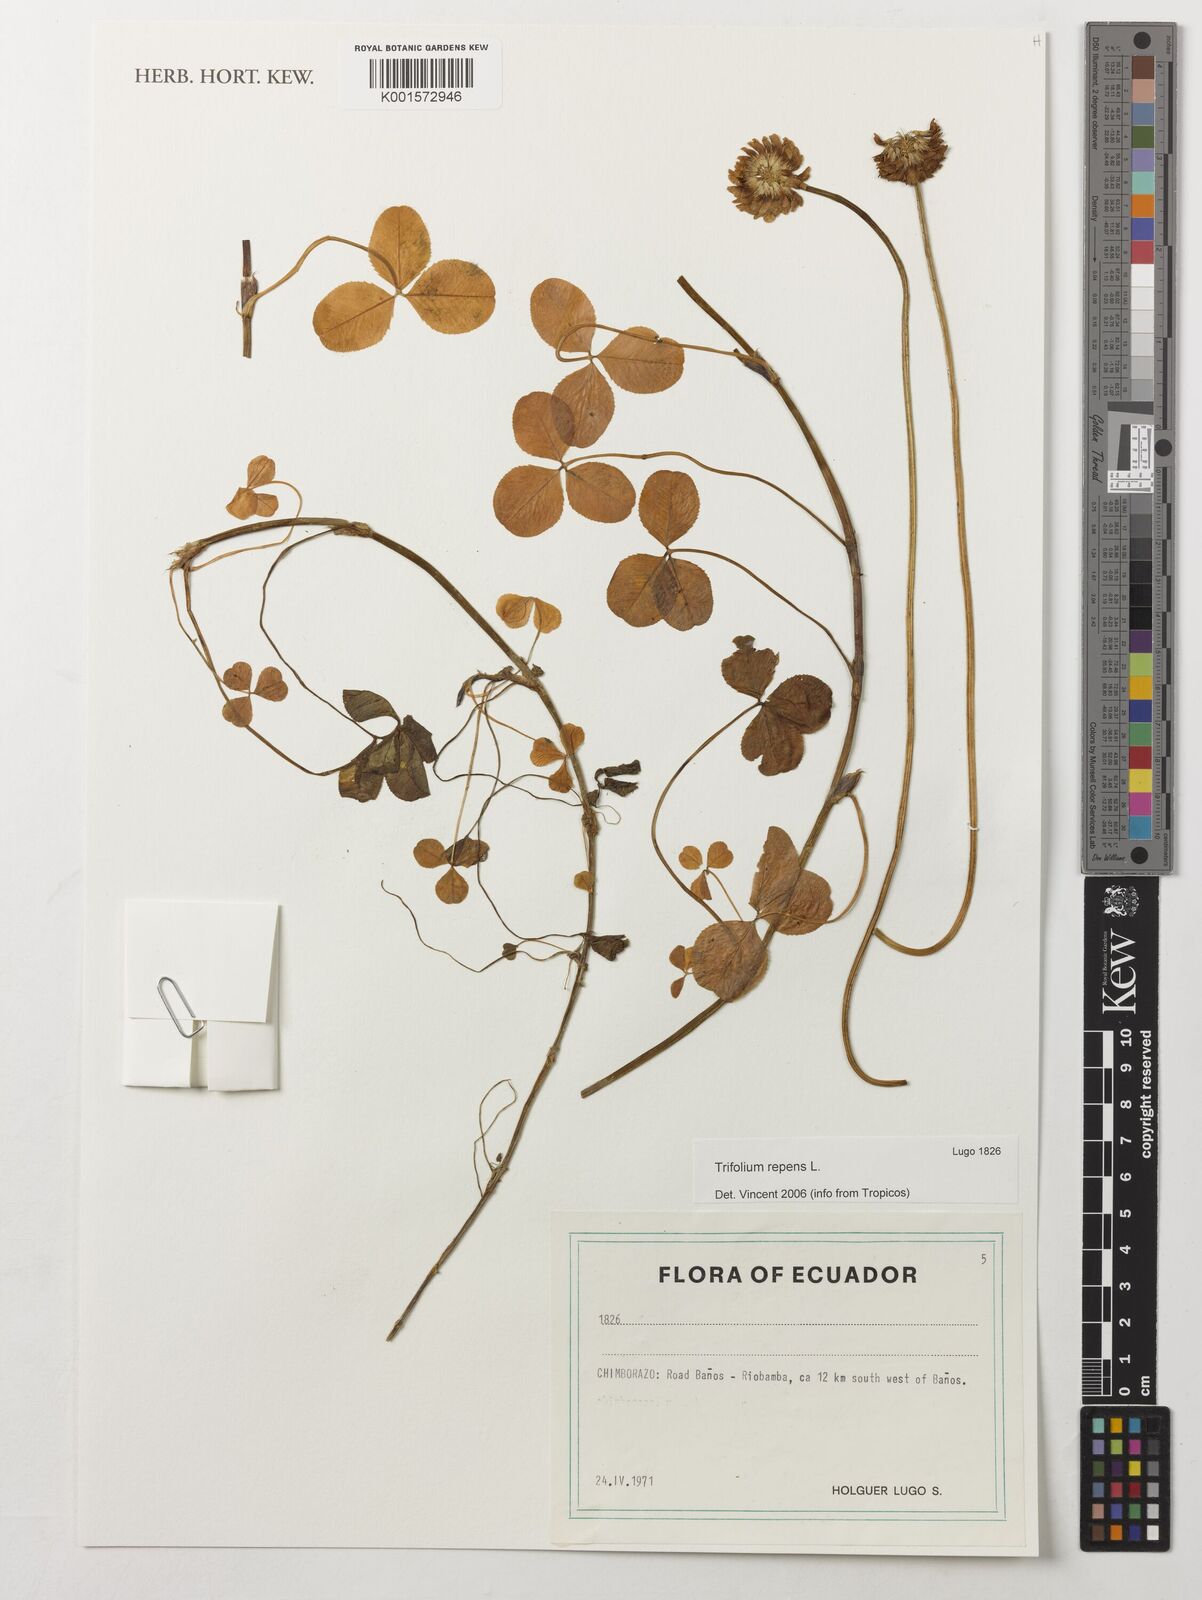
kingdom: Plantae
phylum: Tracheophyta
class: Magnoliopsida
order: Fabales
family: Fabaceae
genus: Trifolium
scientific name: Trifolium repens
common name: White clover
